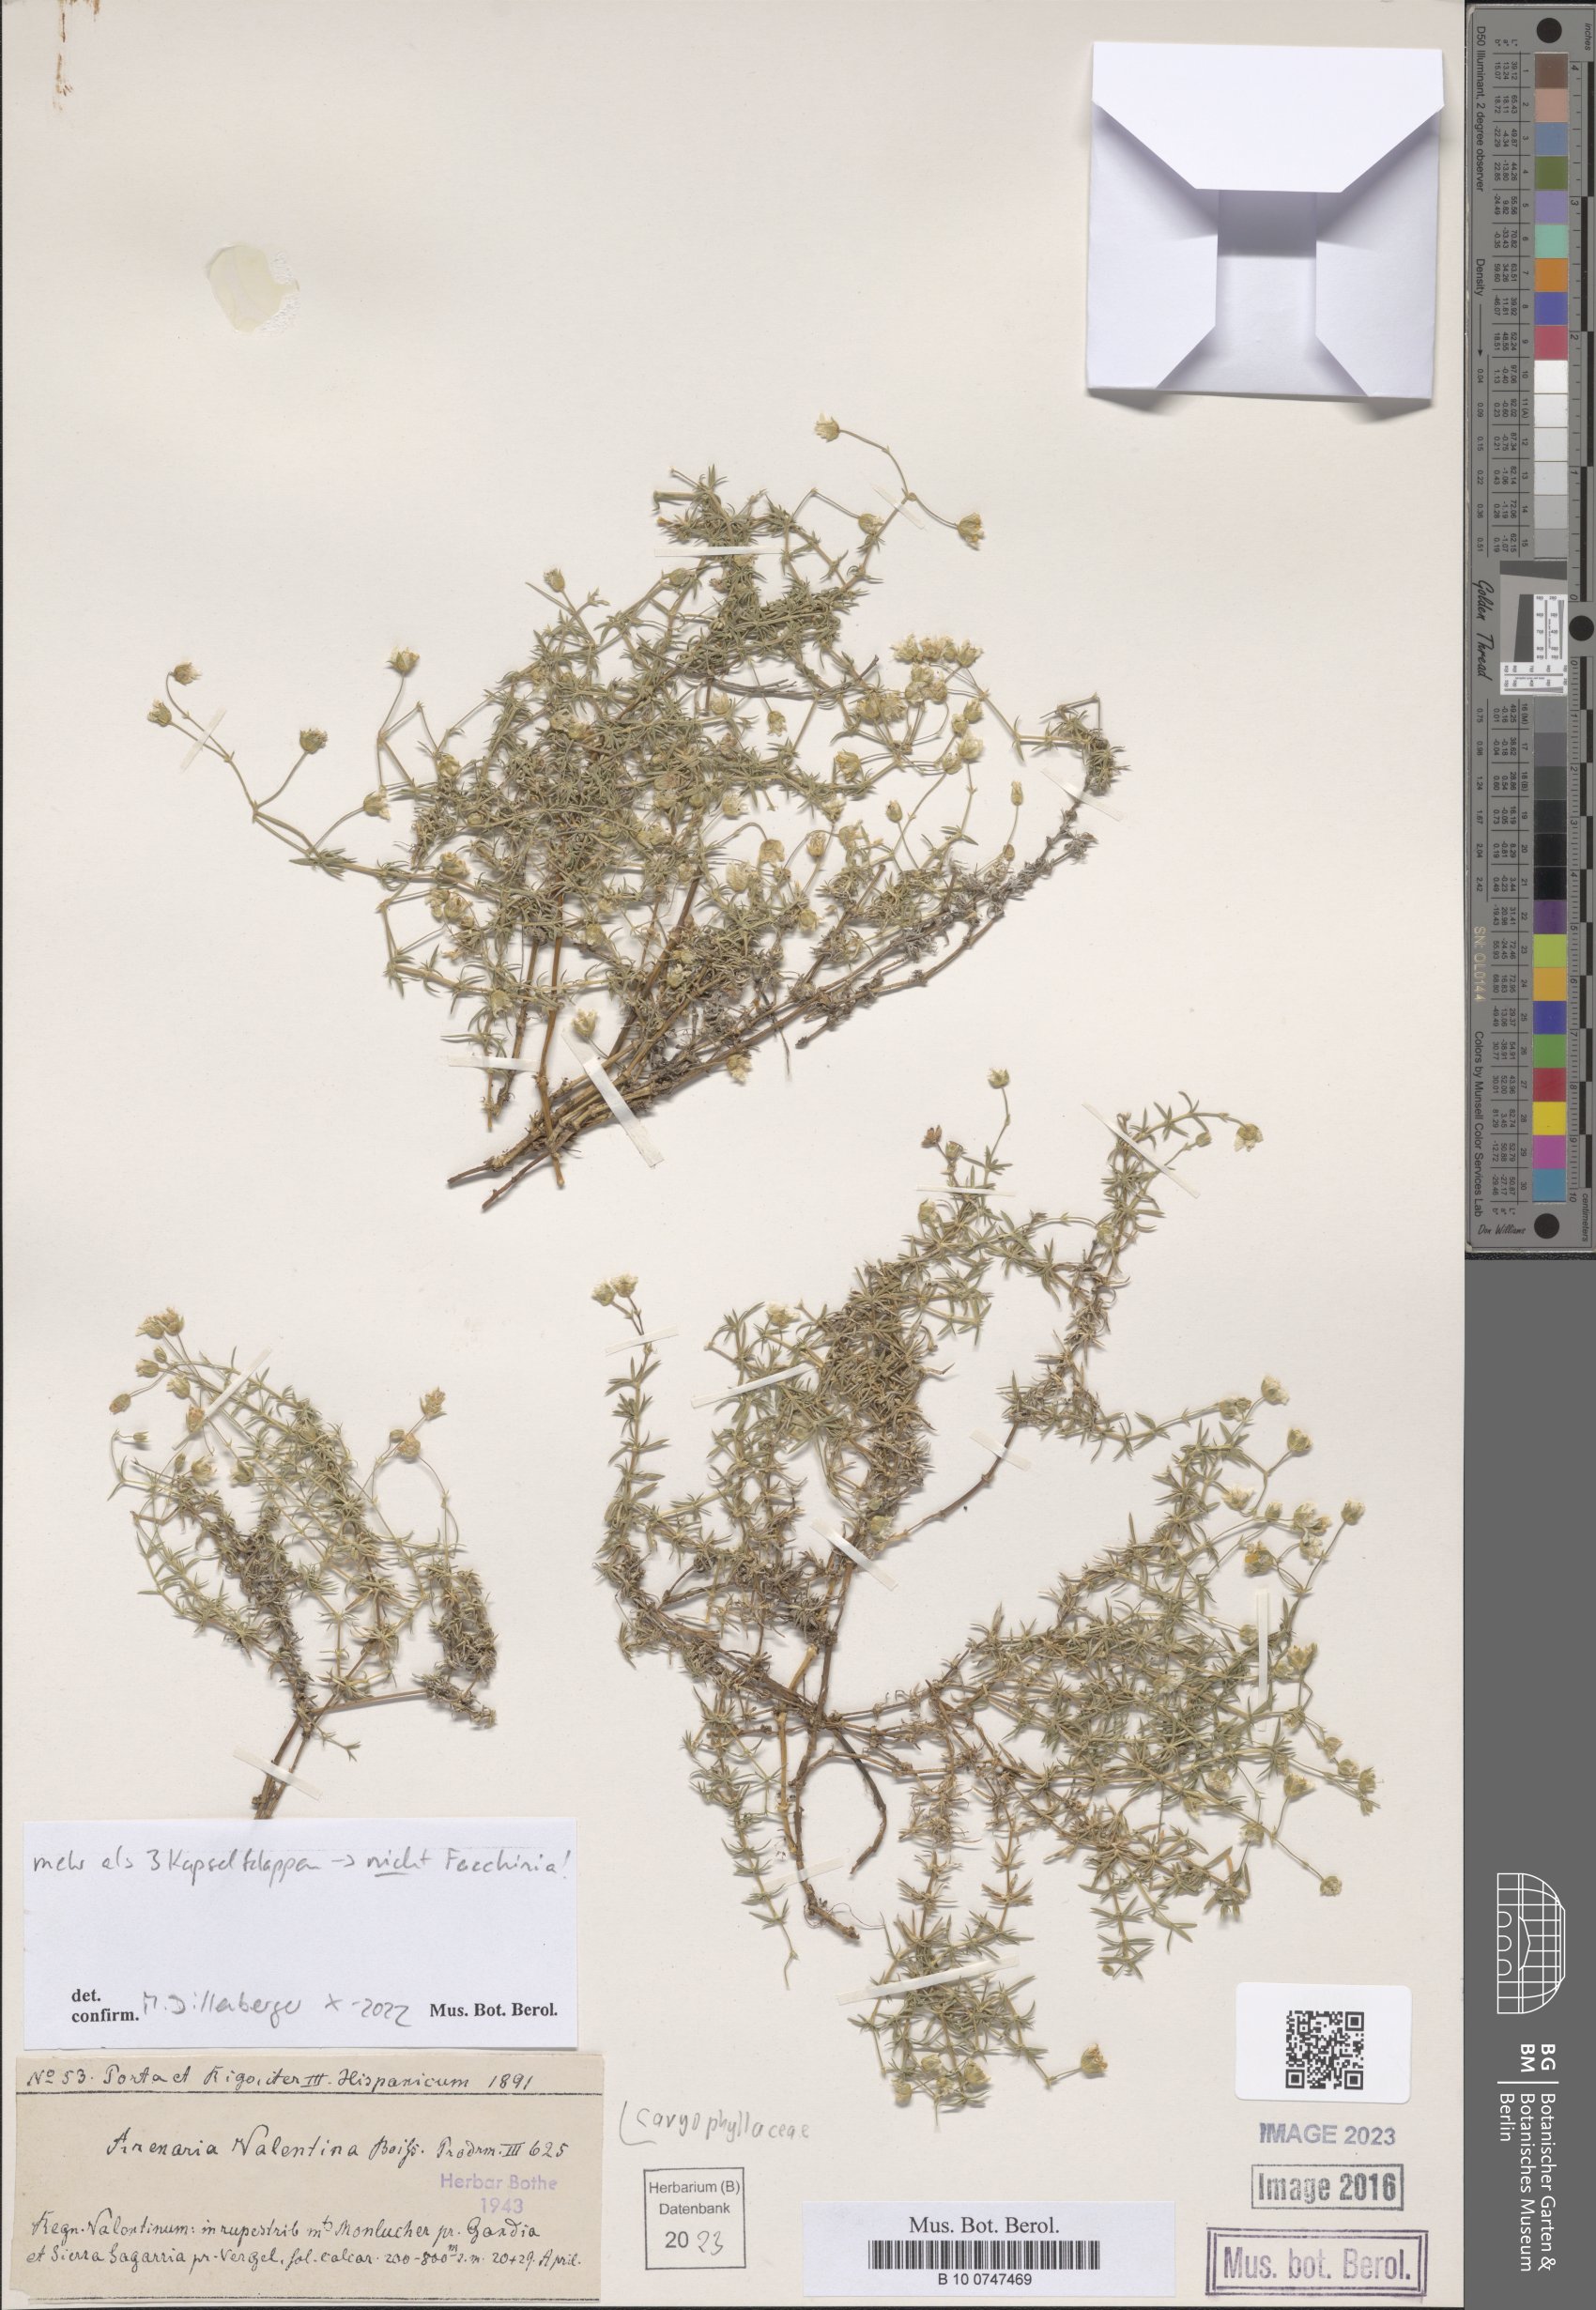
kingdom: Plantae
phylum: Tracheophyta
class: Magnoliopsida
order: Caryophyllales
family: Caryophyllaceae
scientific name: Caryophyllaceae
